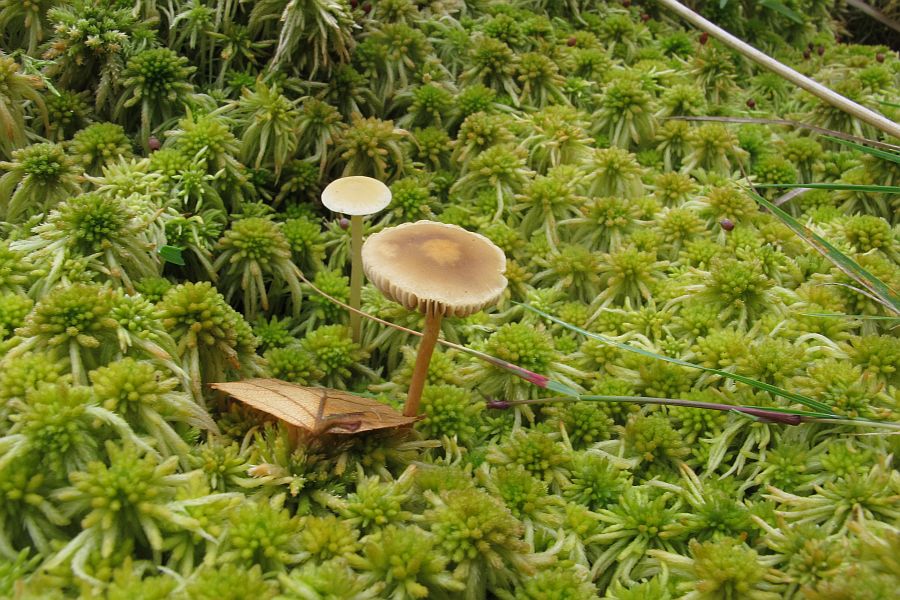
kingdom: Fungi
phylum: Basidiomycota
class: Agaricomycetes
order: Agaricales
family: Strophariaceae
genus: Bogbodia
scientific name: Bogbodia uda
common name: tørve-svovlhat
